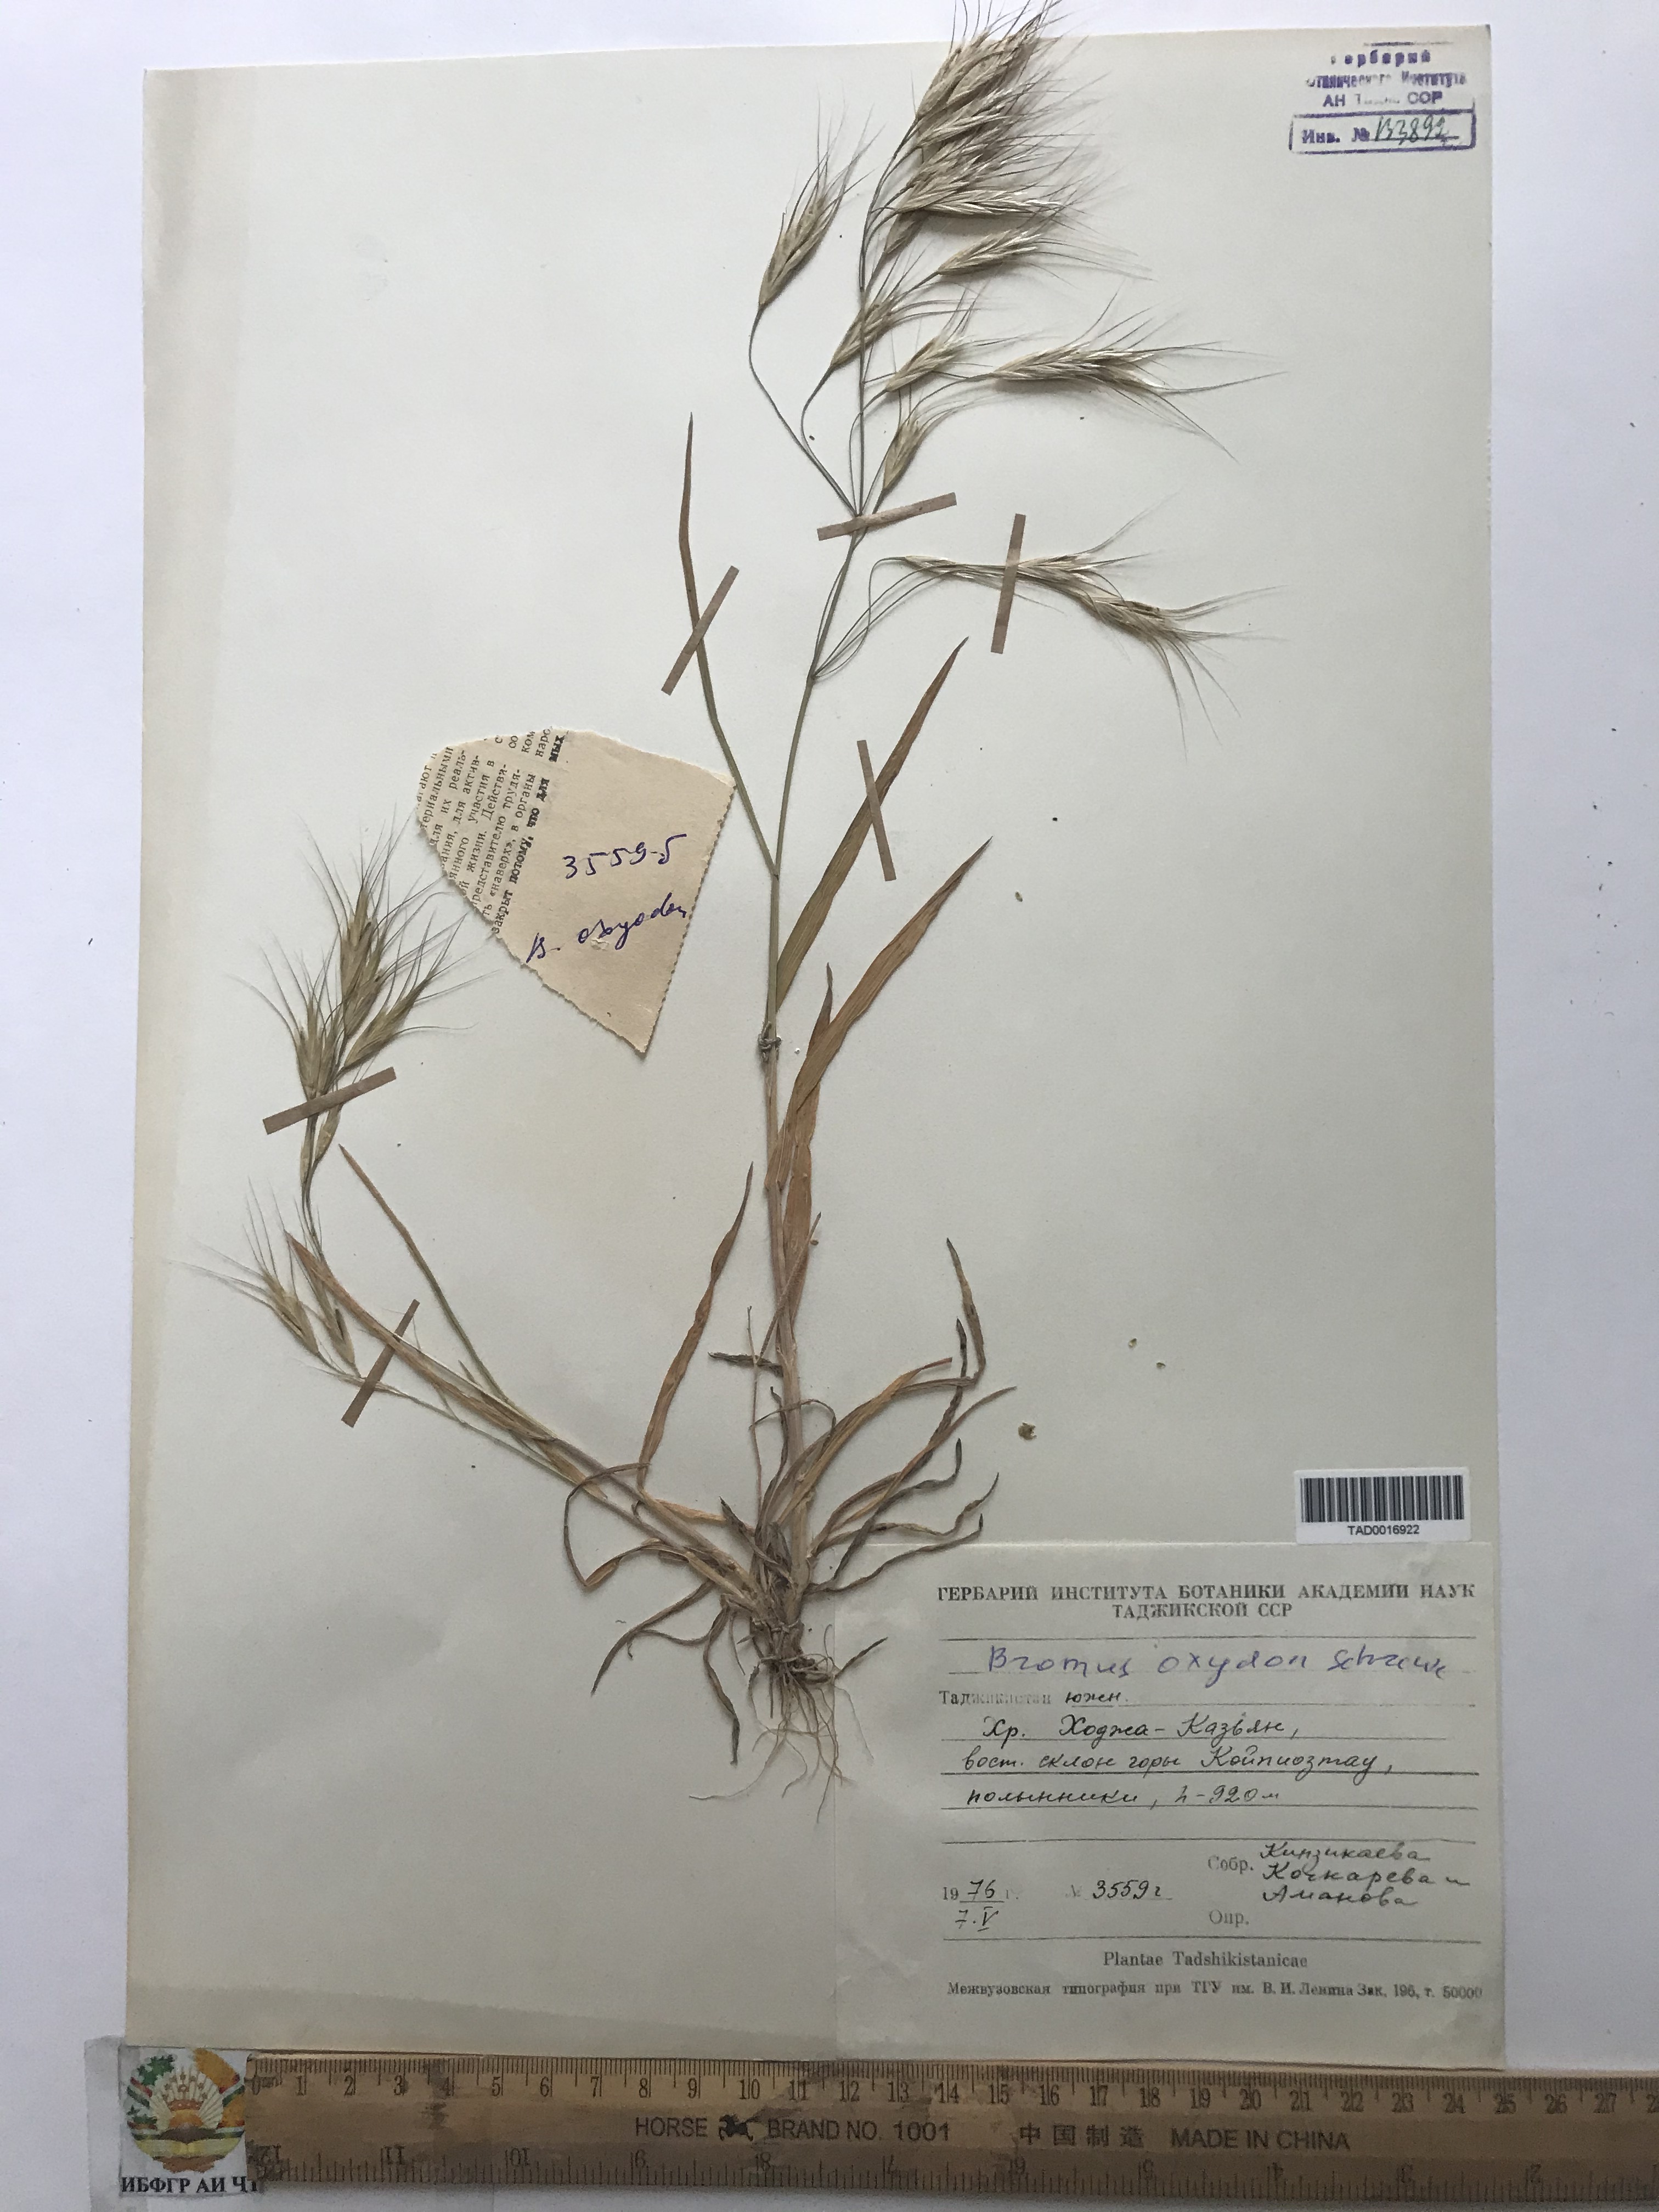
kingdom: Plantae
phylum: Tracheophyta
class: Liliopsida
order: Poales
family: Poaceae
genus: Bromus
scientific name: Bromus oxyodon
